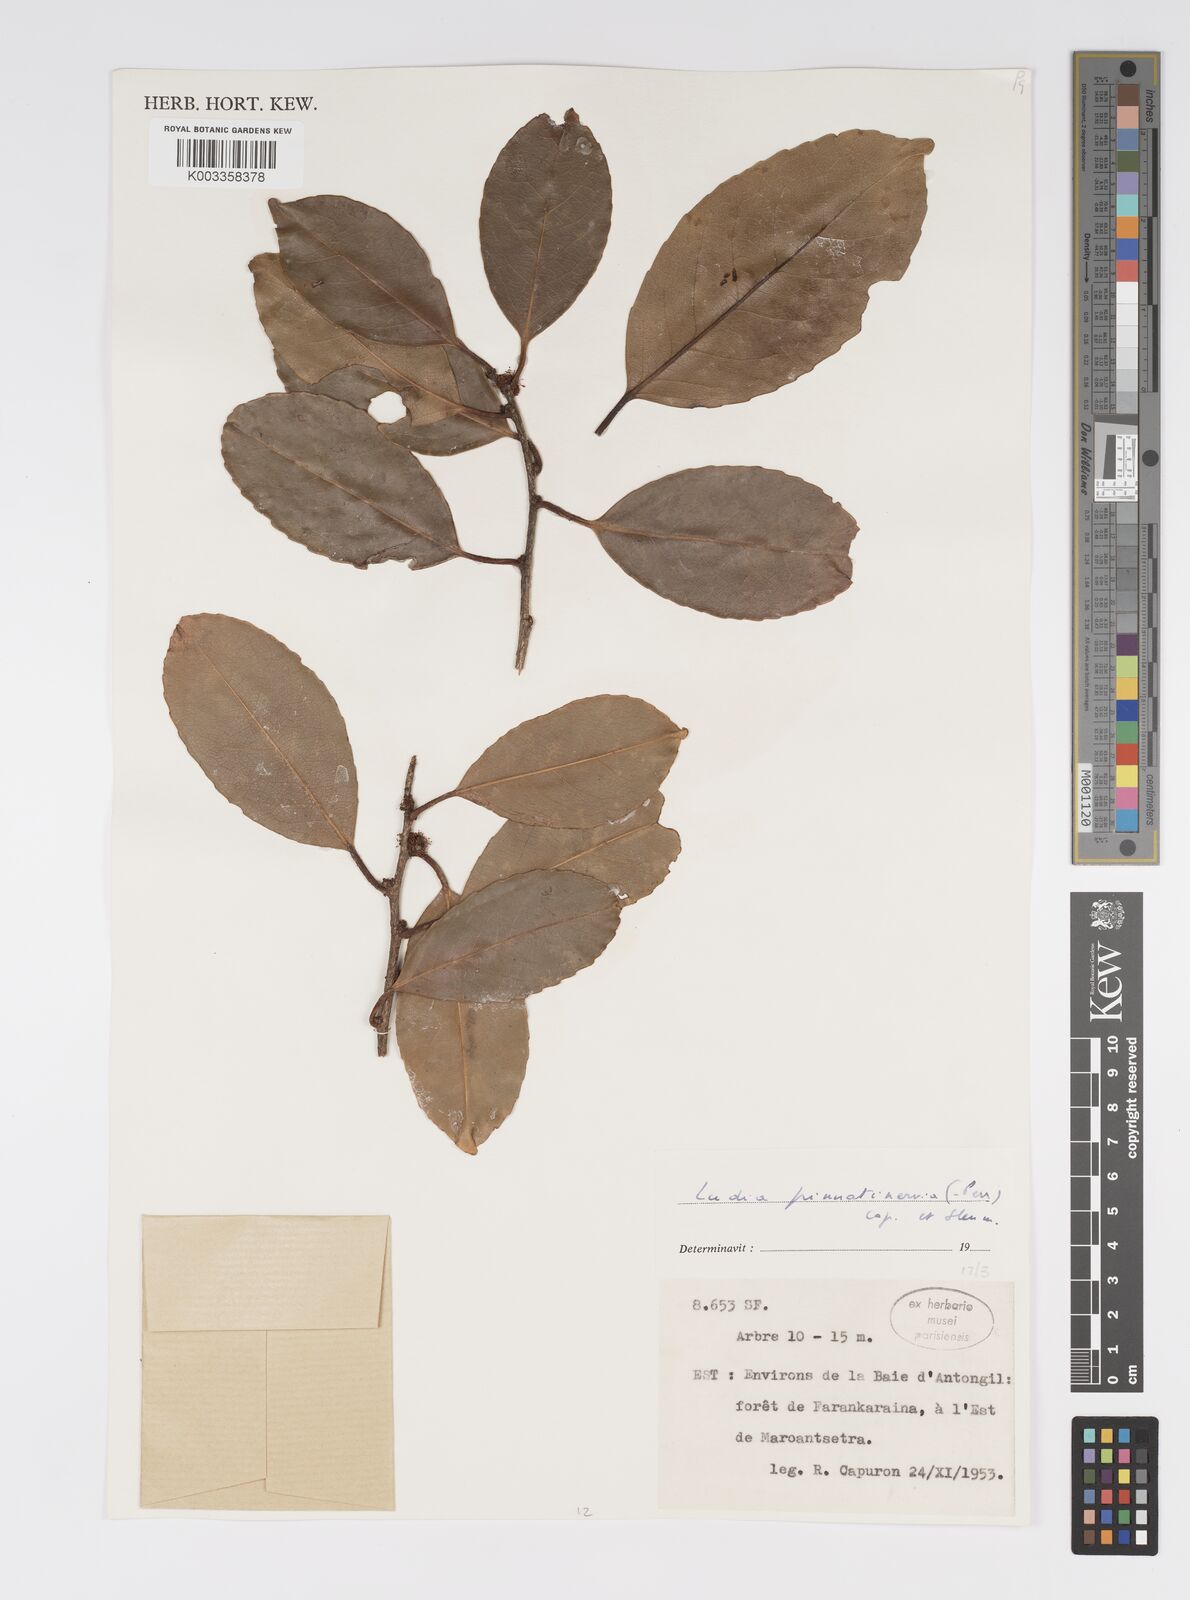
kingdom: Plantae
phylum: Tracheophyta
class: Magnoliopsida
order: Malpighiales
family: Salicaceae
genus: Ludia
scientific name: Ludia pinnatinervia
